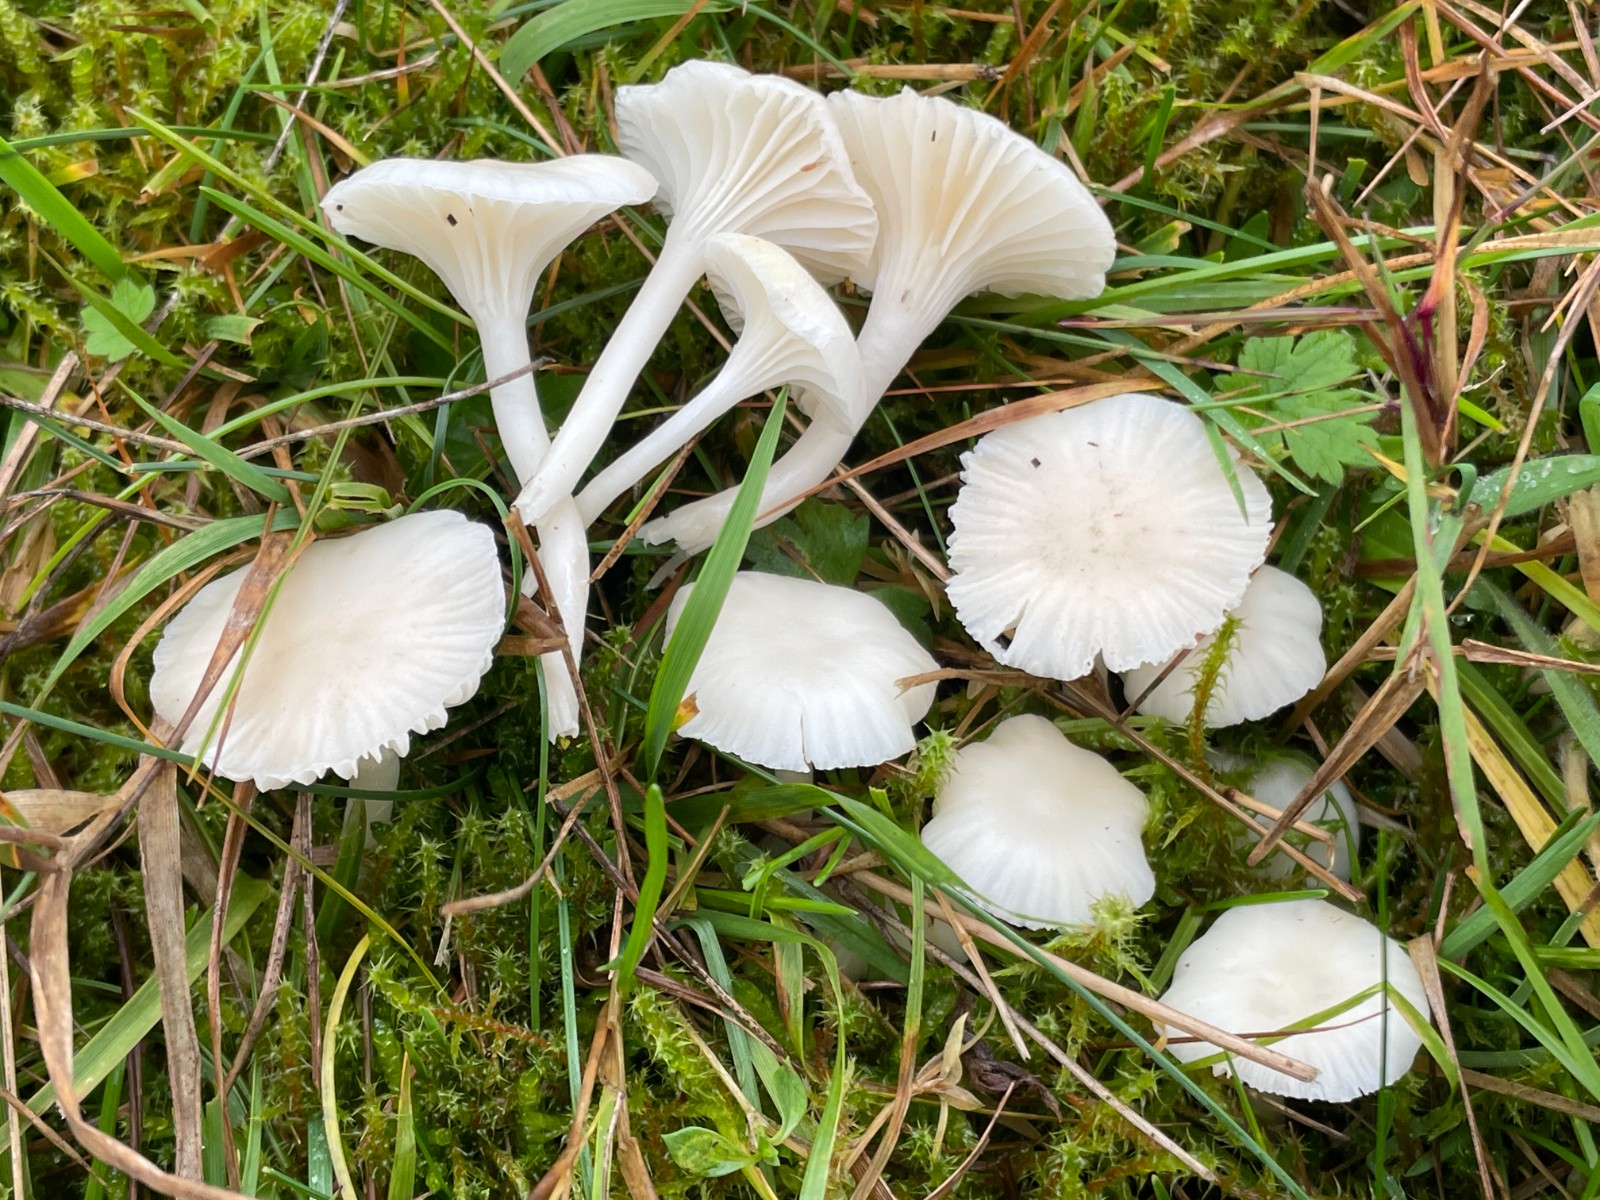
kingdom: Fungi
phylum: Basidiomycota
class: Agaricomycetes
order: Agaricales
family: Hygrophoraceae
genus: Cuphophyllus
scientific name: Cuphophyllus virgineus
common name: snehvid vokshat
